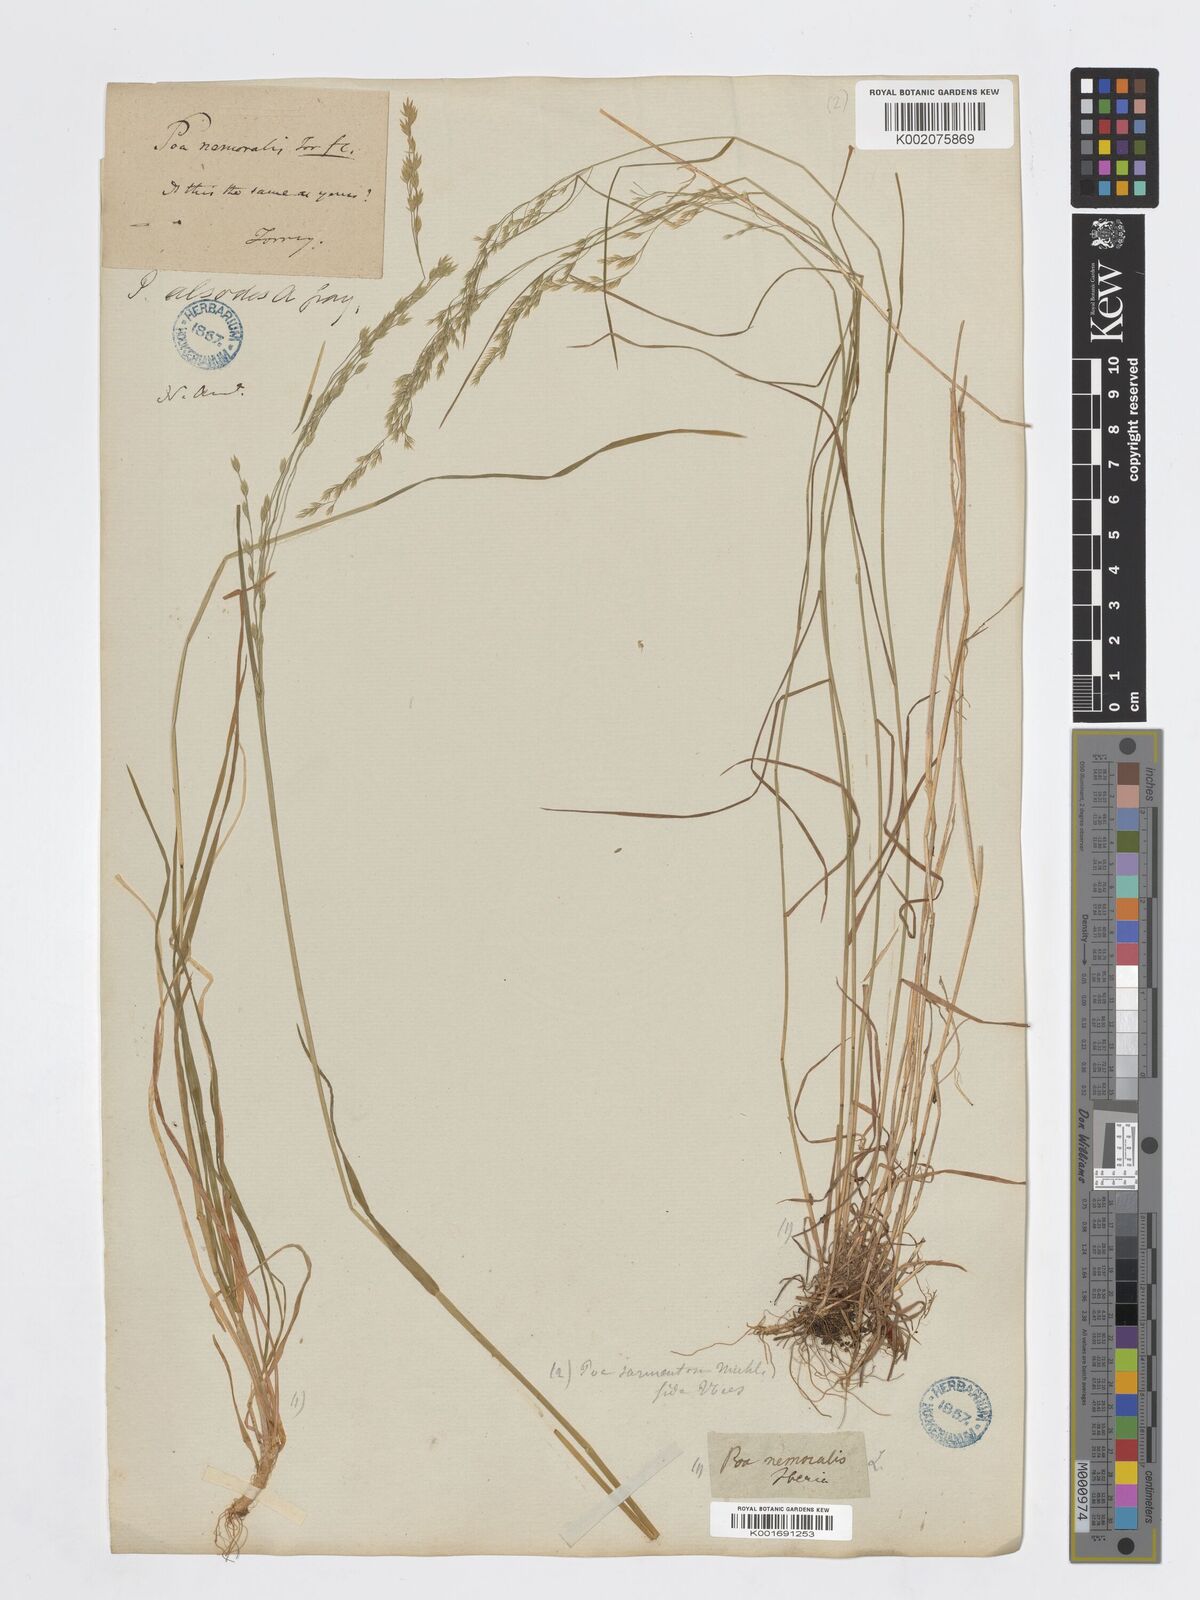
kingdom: Plantae
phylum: Tracheophyta
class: Liliopsida
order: Poales
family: Poaceae
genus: Poa
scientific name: Poa nemoralis
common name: Wood bluegrass
